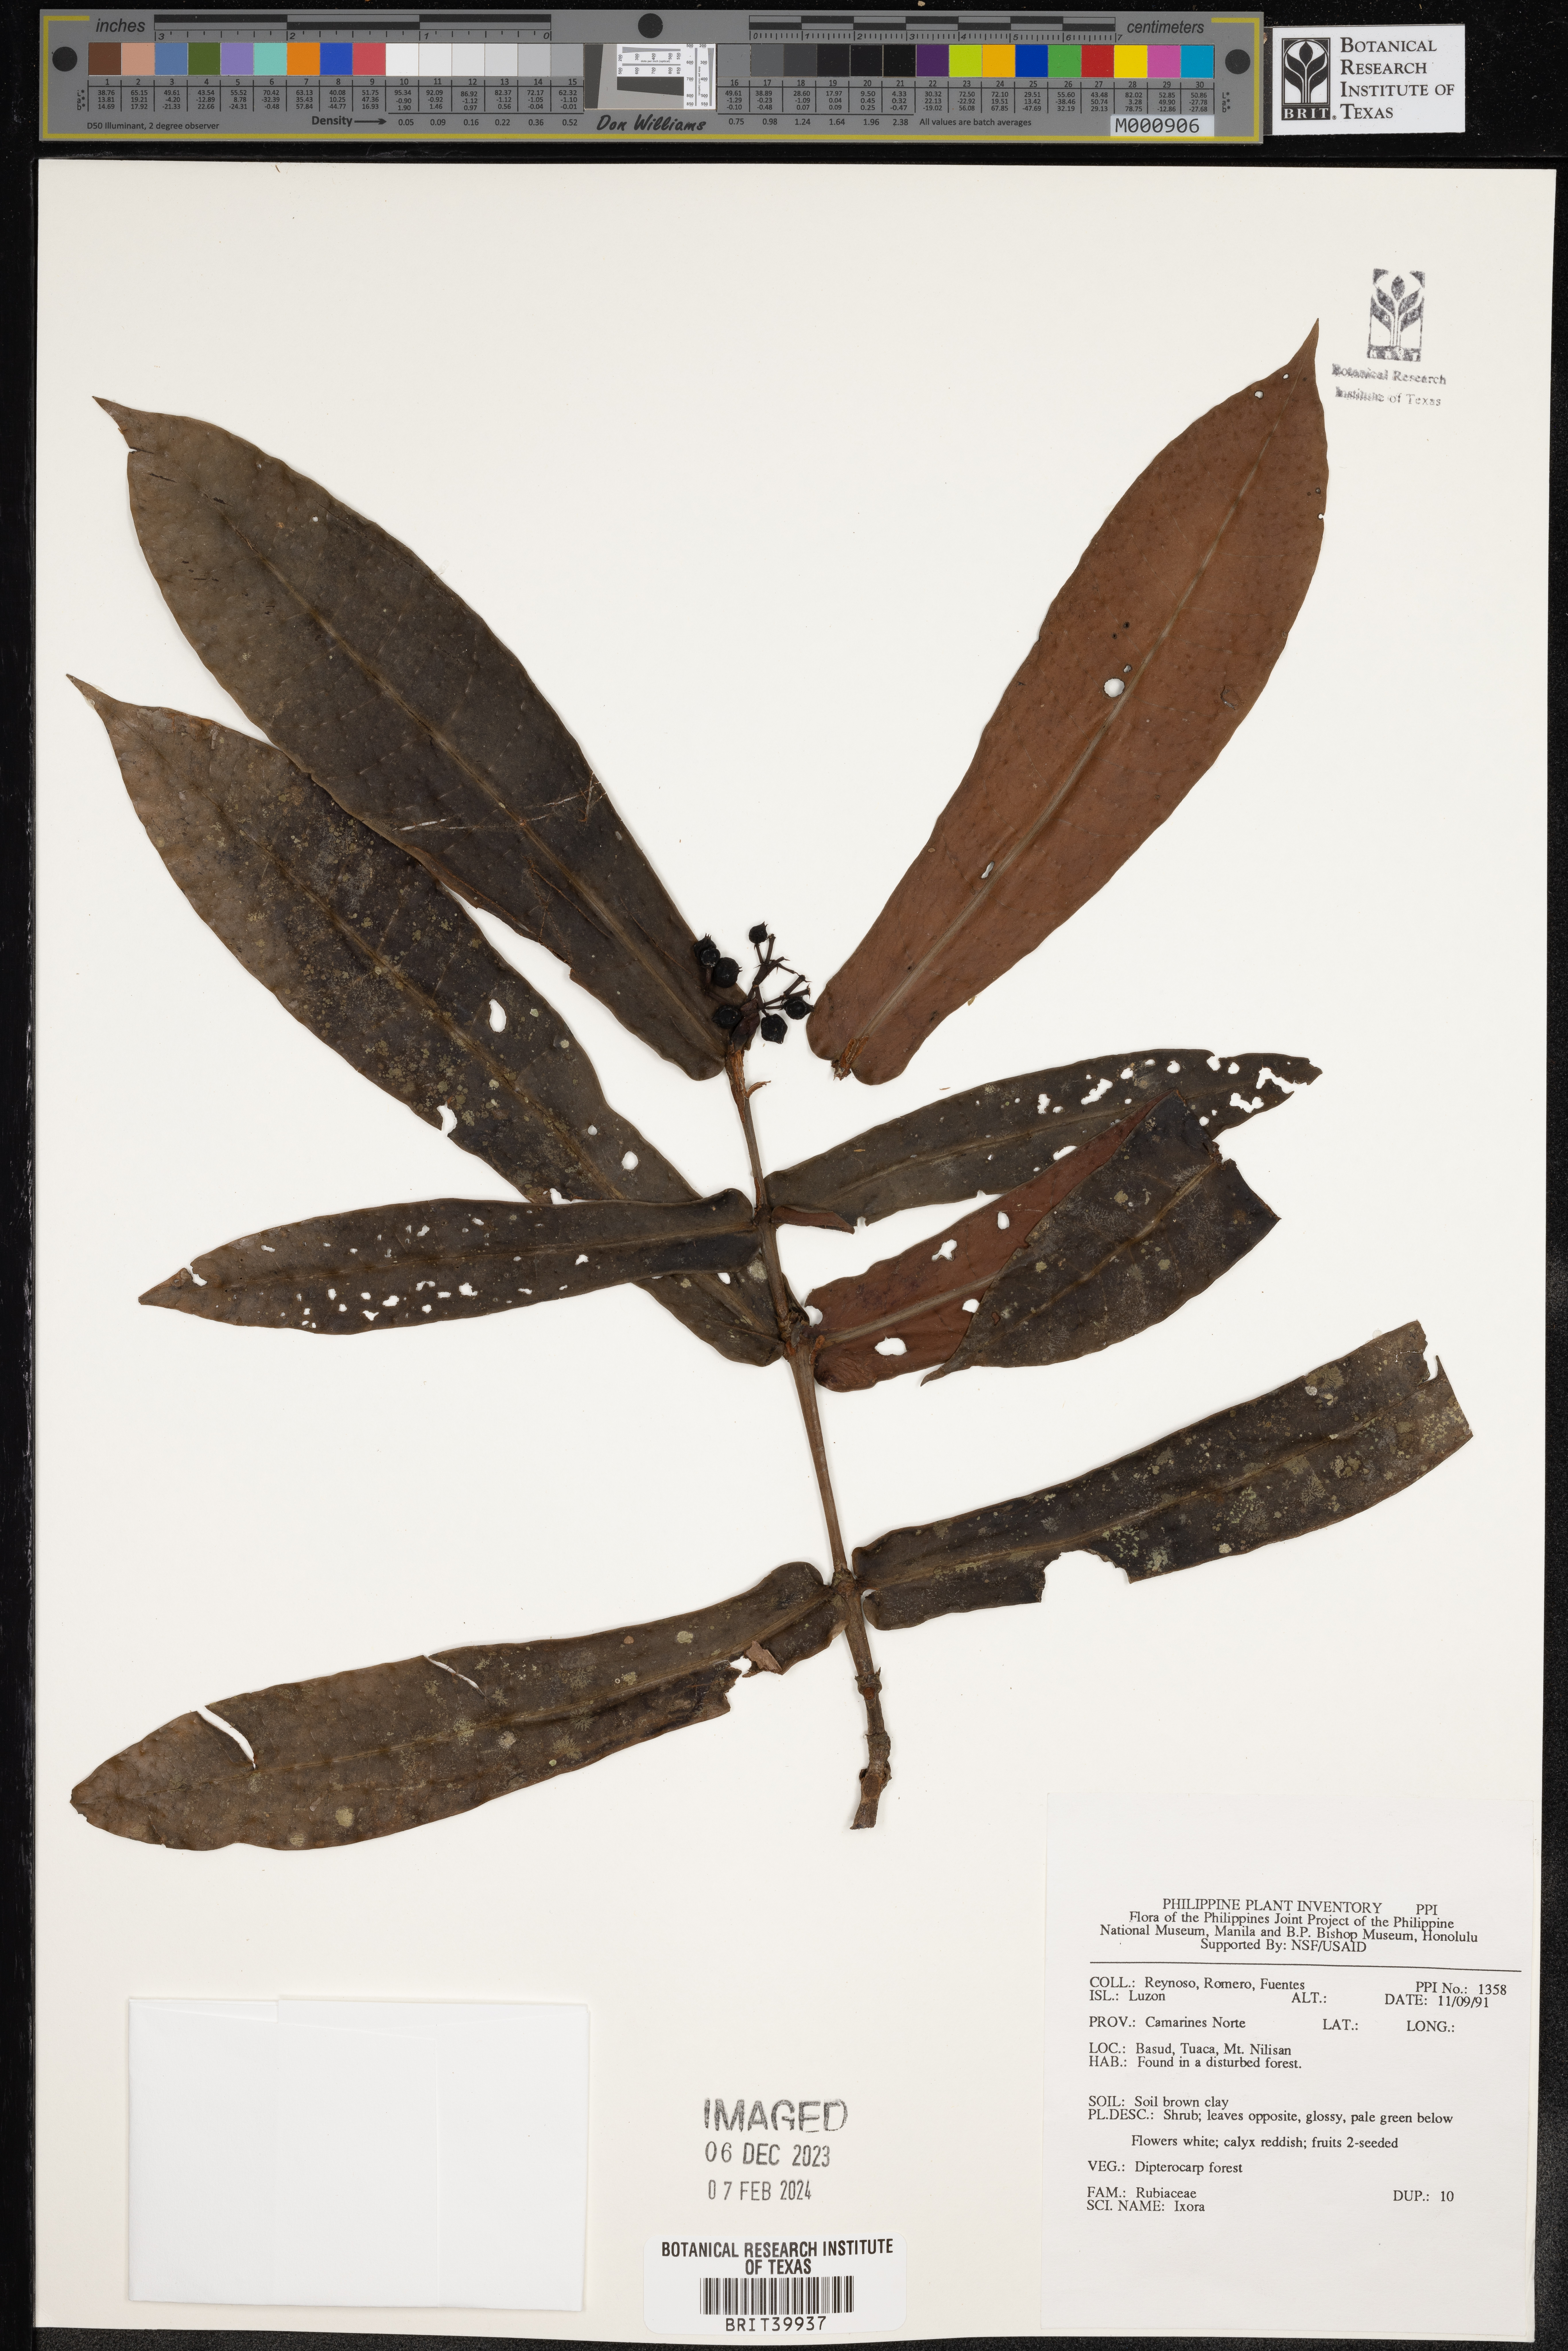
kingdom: Plantae
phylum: Tracheophyta
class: Magnoliopsida
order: Gentianales
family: Rubiaceae
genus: Ixora
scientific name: Ixora
